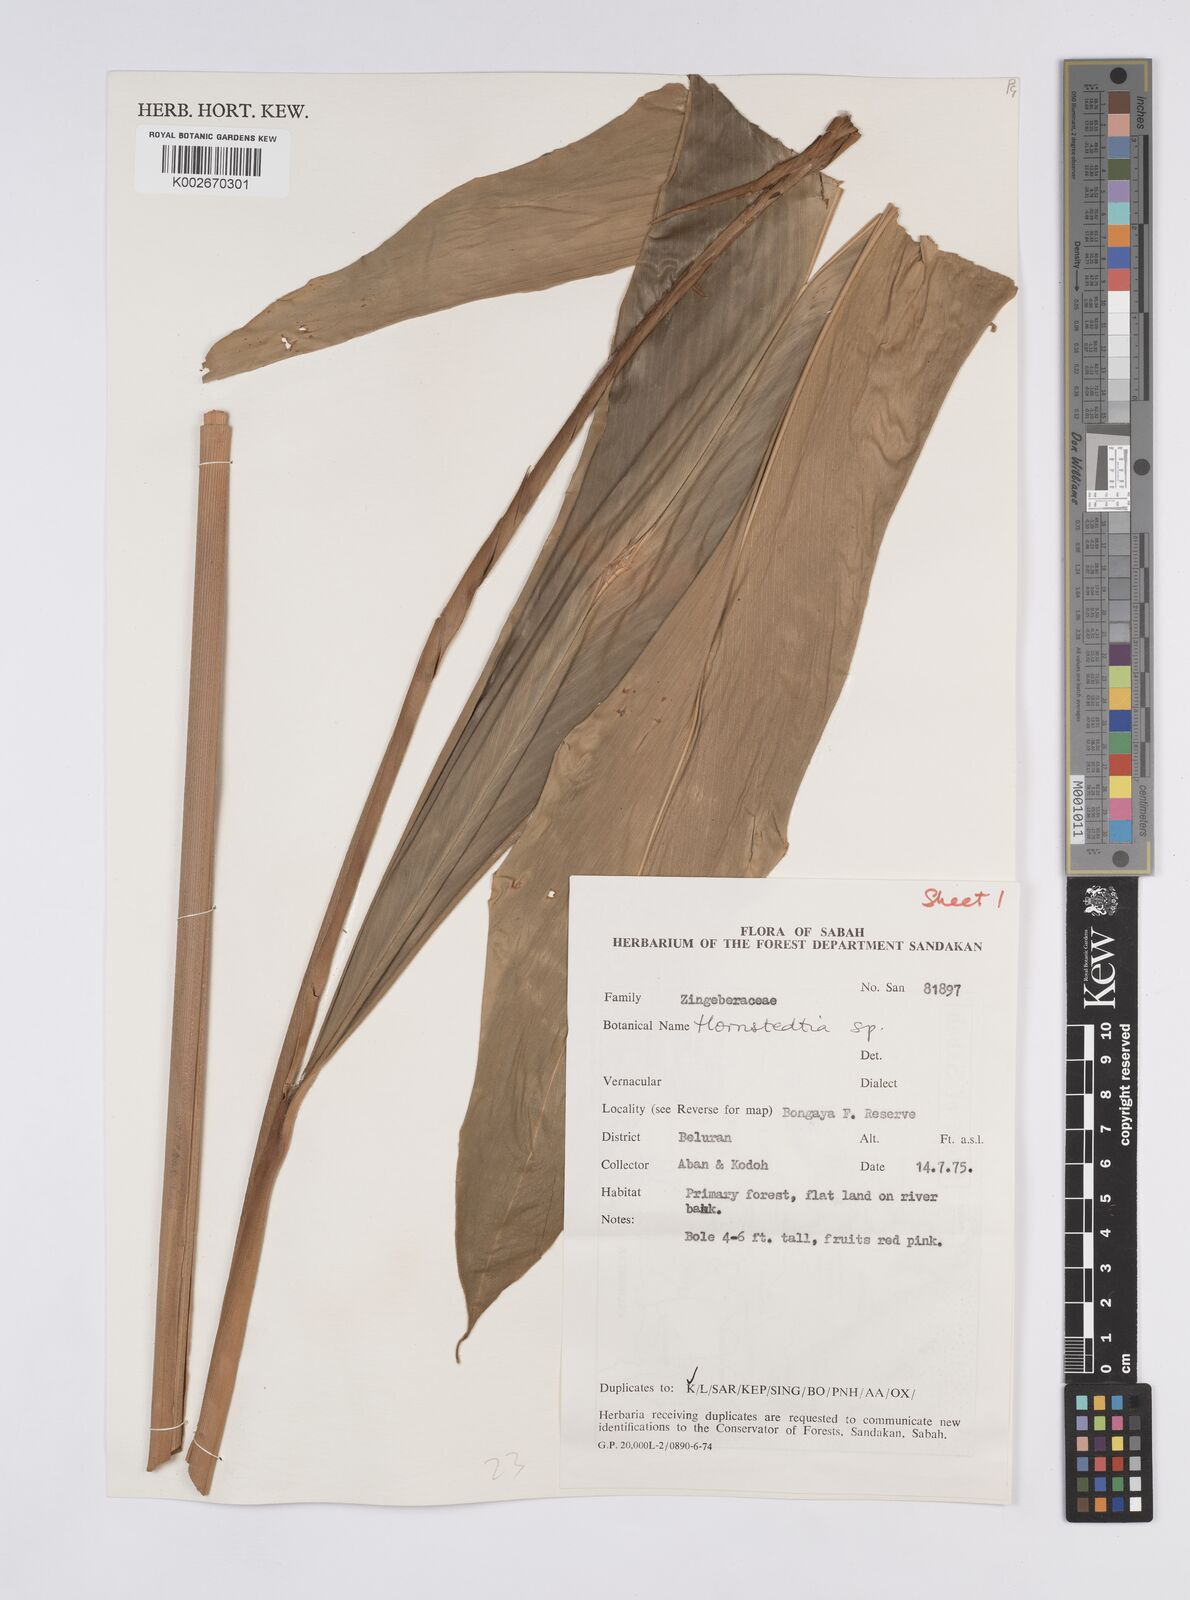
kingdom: Plantae
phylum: Tracheophyta
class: Liliopsida
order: Zingiberales
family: Zingiberaceae
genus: Hornstedtia
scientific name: Hornstedtia
